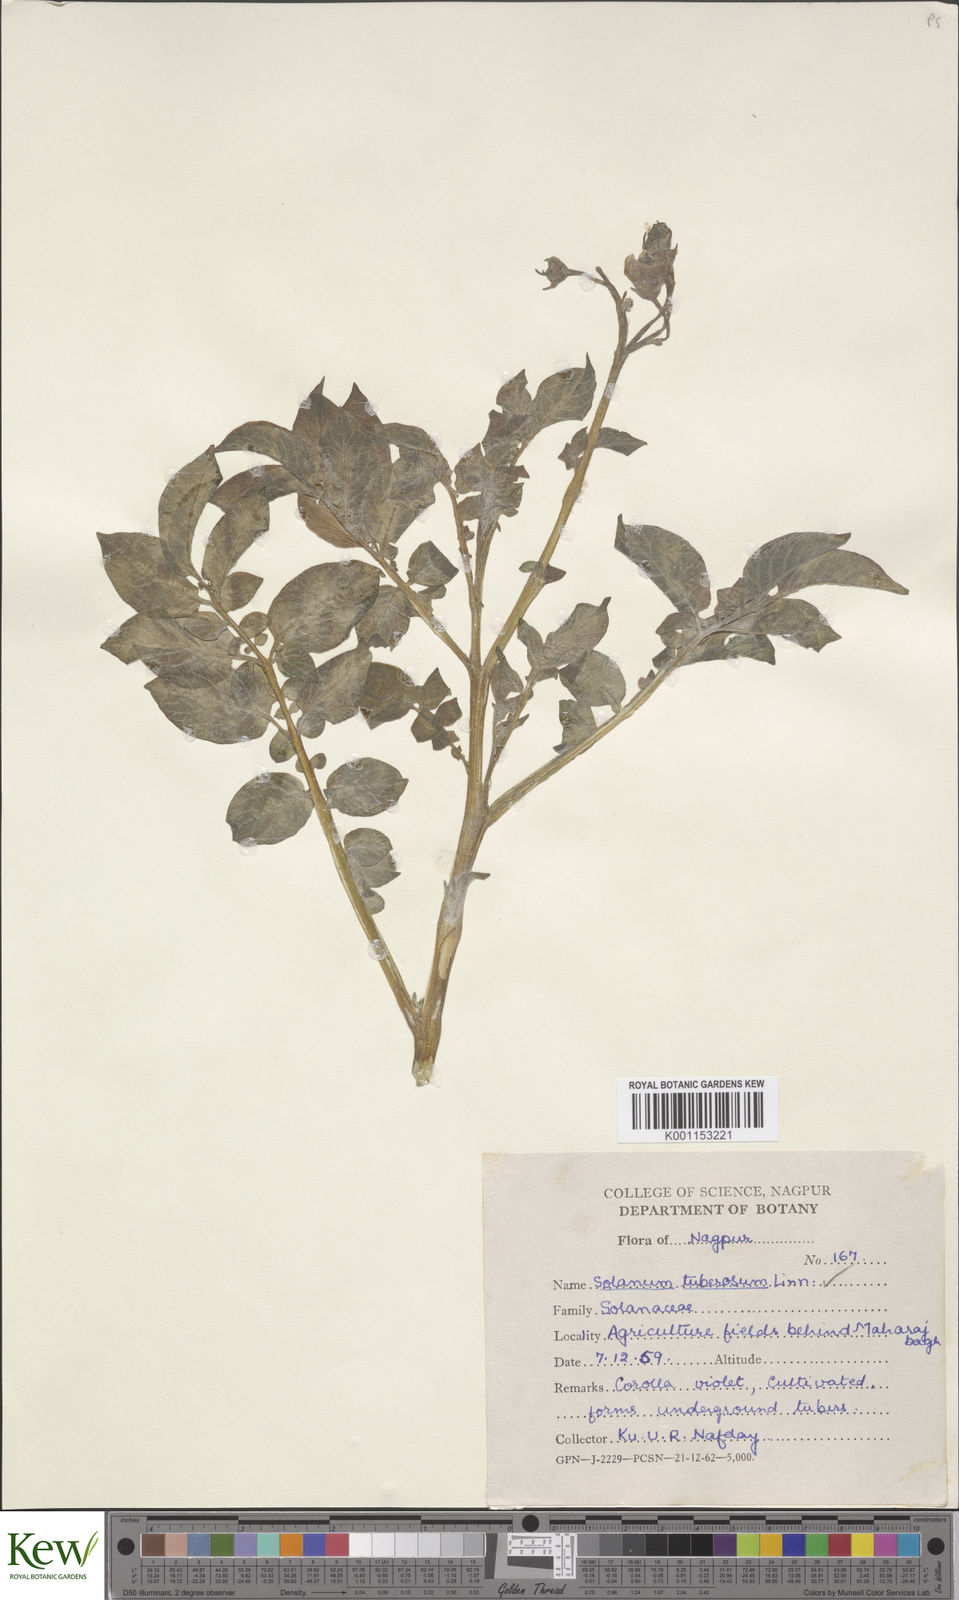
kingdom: Plantae
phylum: Tracheophyta
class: Magnoliopsida
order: Solanales
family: Solanaceae
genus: Solanum
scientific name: Solanum tuberosum
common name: Potato
